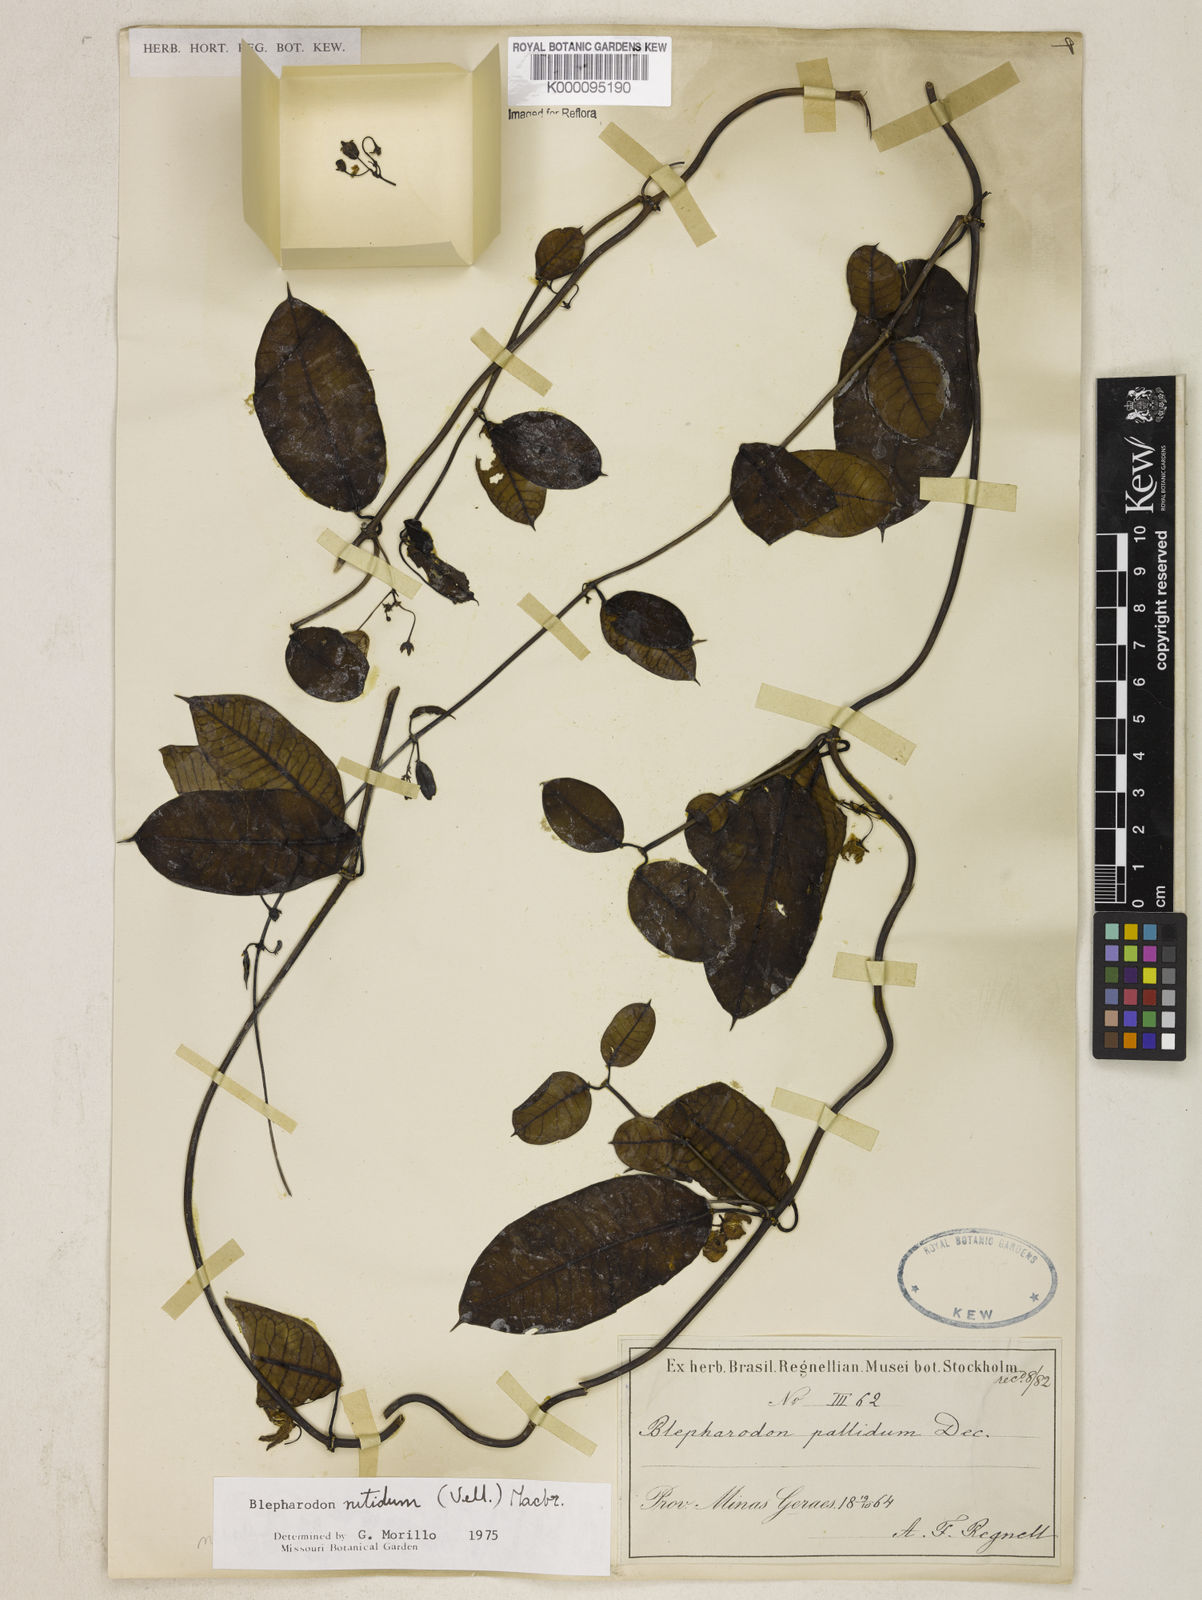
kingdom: Plantae
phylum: Tracheophyta
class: Magnoliopsida
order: Gentianales
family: Apocynaceae
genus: Blepharodon
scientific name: Blepharodon pictum
